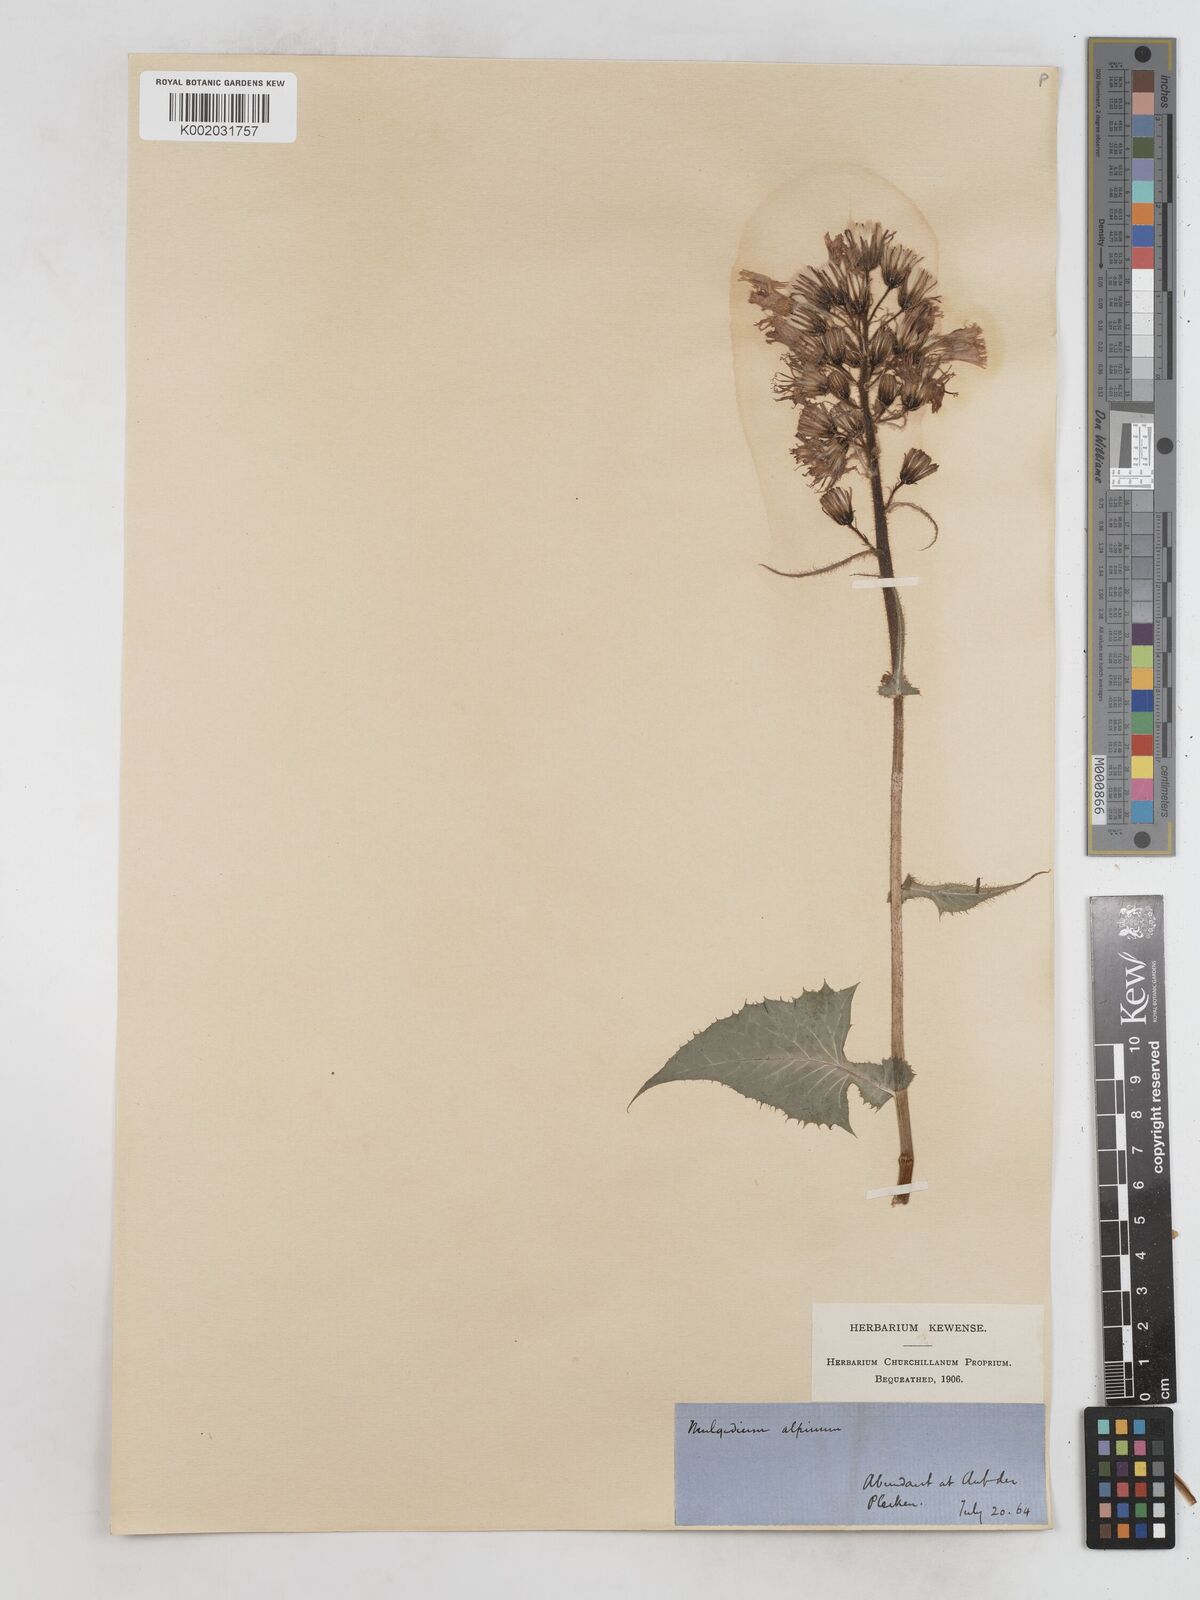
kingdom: Plantae
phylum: Tracheophyta
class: Magnoliopsida
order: Asterales
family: Asteraceae
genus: Cicerbita
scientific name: Cicerbita alpina
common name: Alpine blue-sow-thistle
